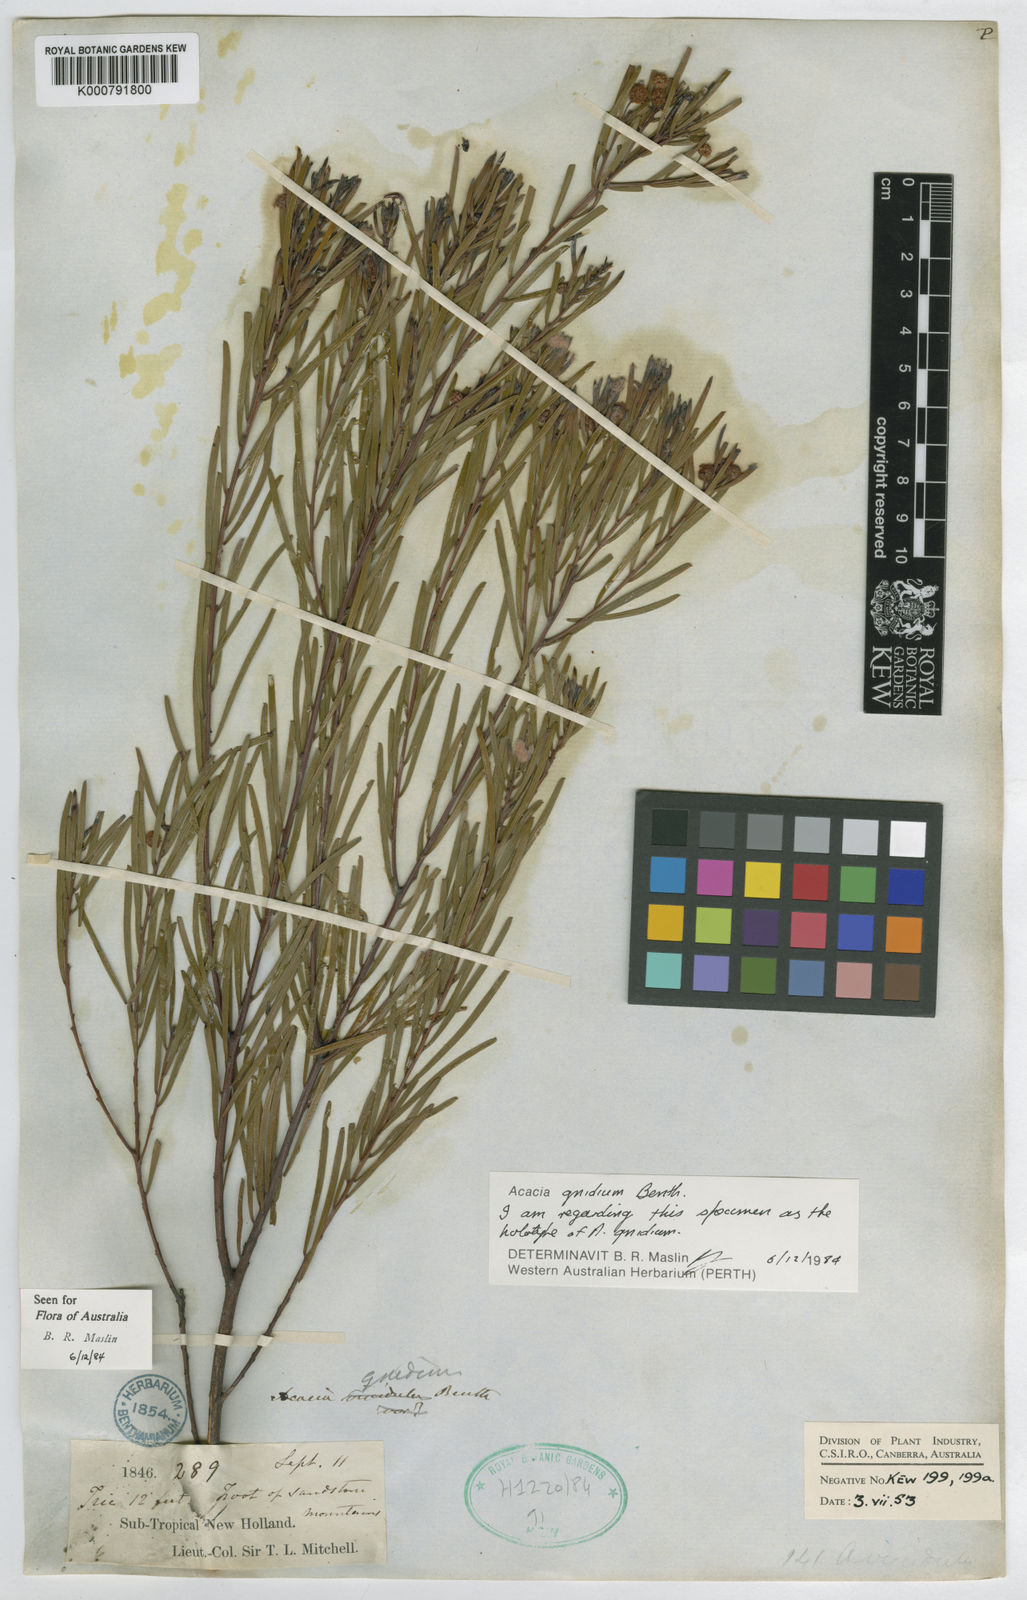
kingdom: Plantae
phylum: Tracheophyta
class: Magnoliopsida
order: Fabales
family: Fabaceae
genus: Acacia
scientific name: Acacia gnidium
